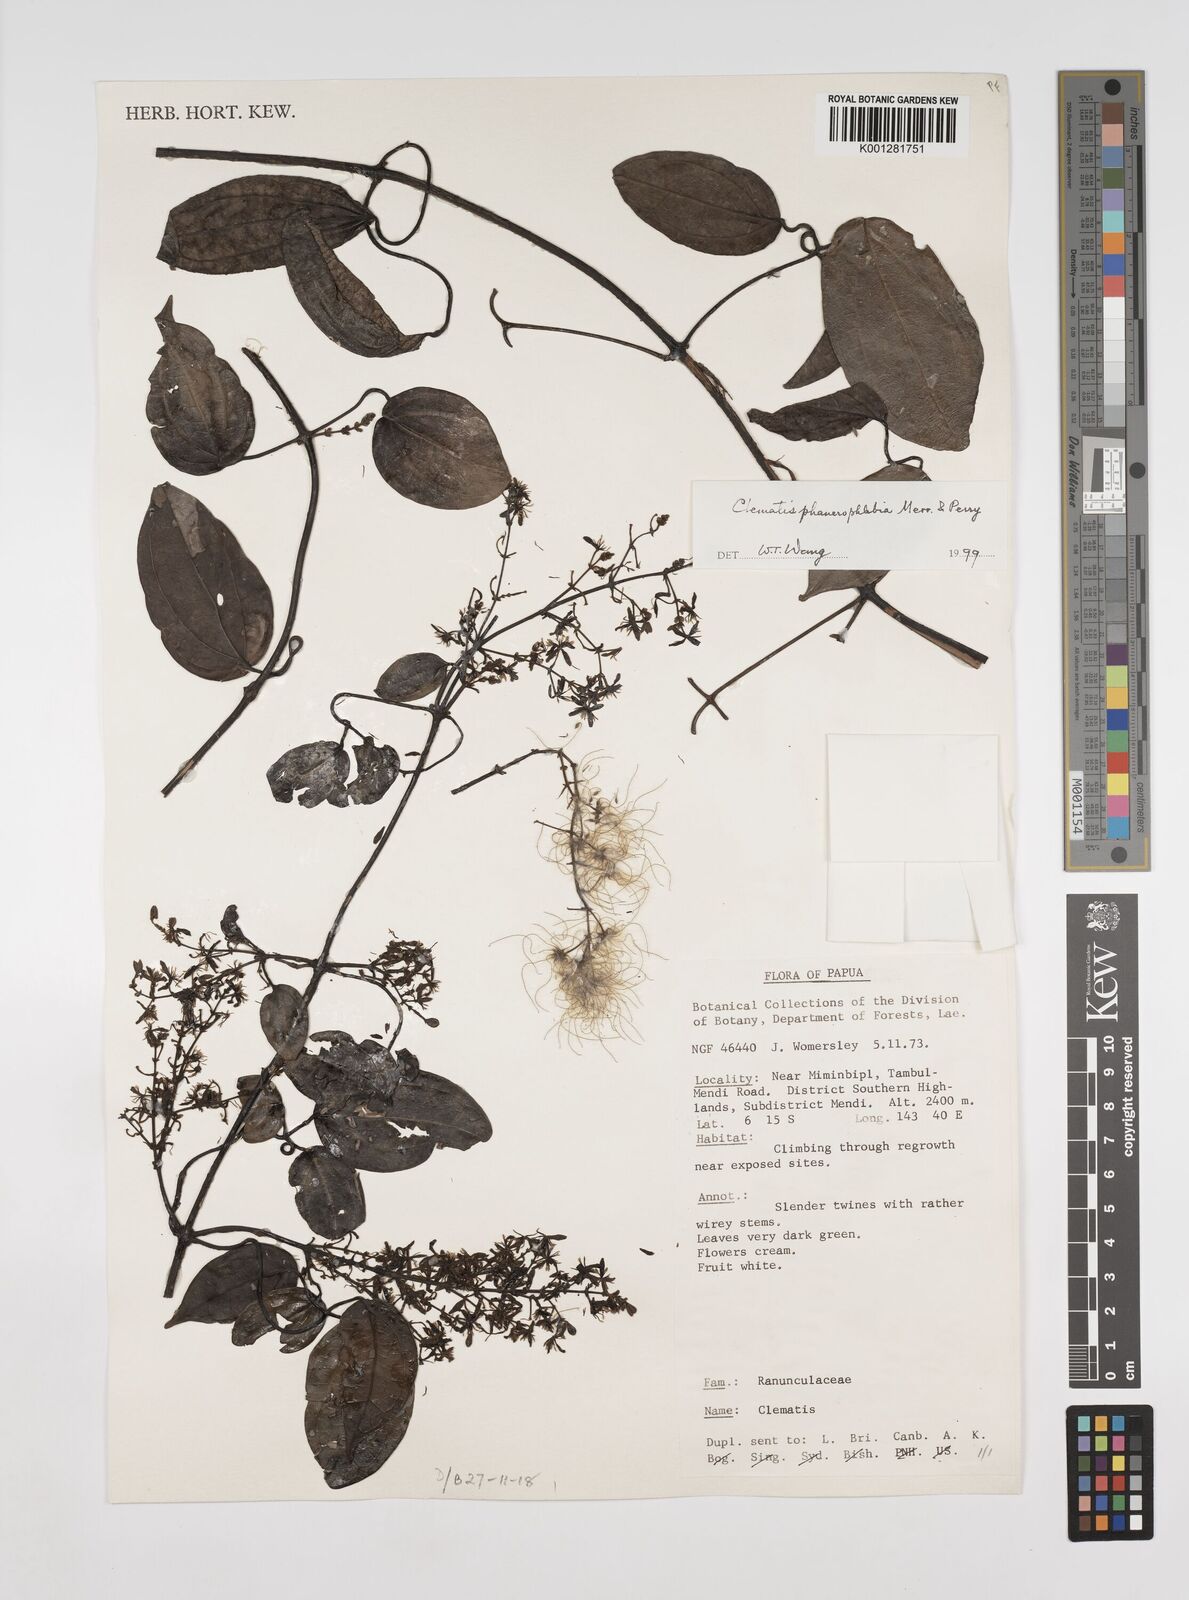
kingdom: Plantae
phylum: Tracheophyta
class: Magnoliopsida
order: Ranunculales
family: Ranunculaceae
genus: Clematis
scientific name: Clematis phanerophlebia
